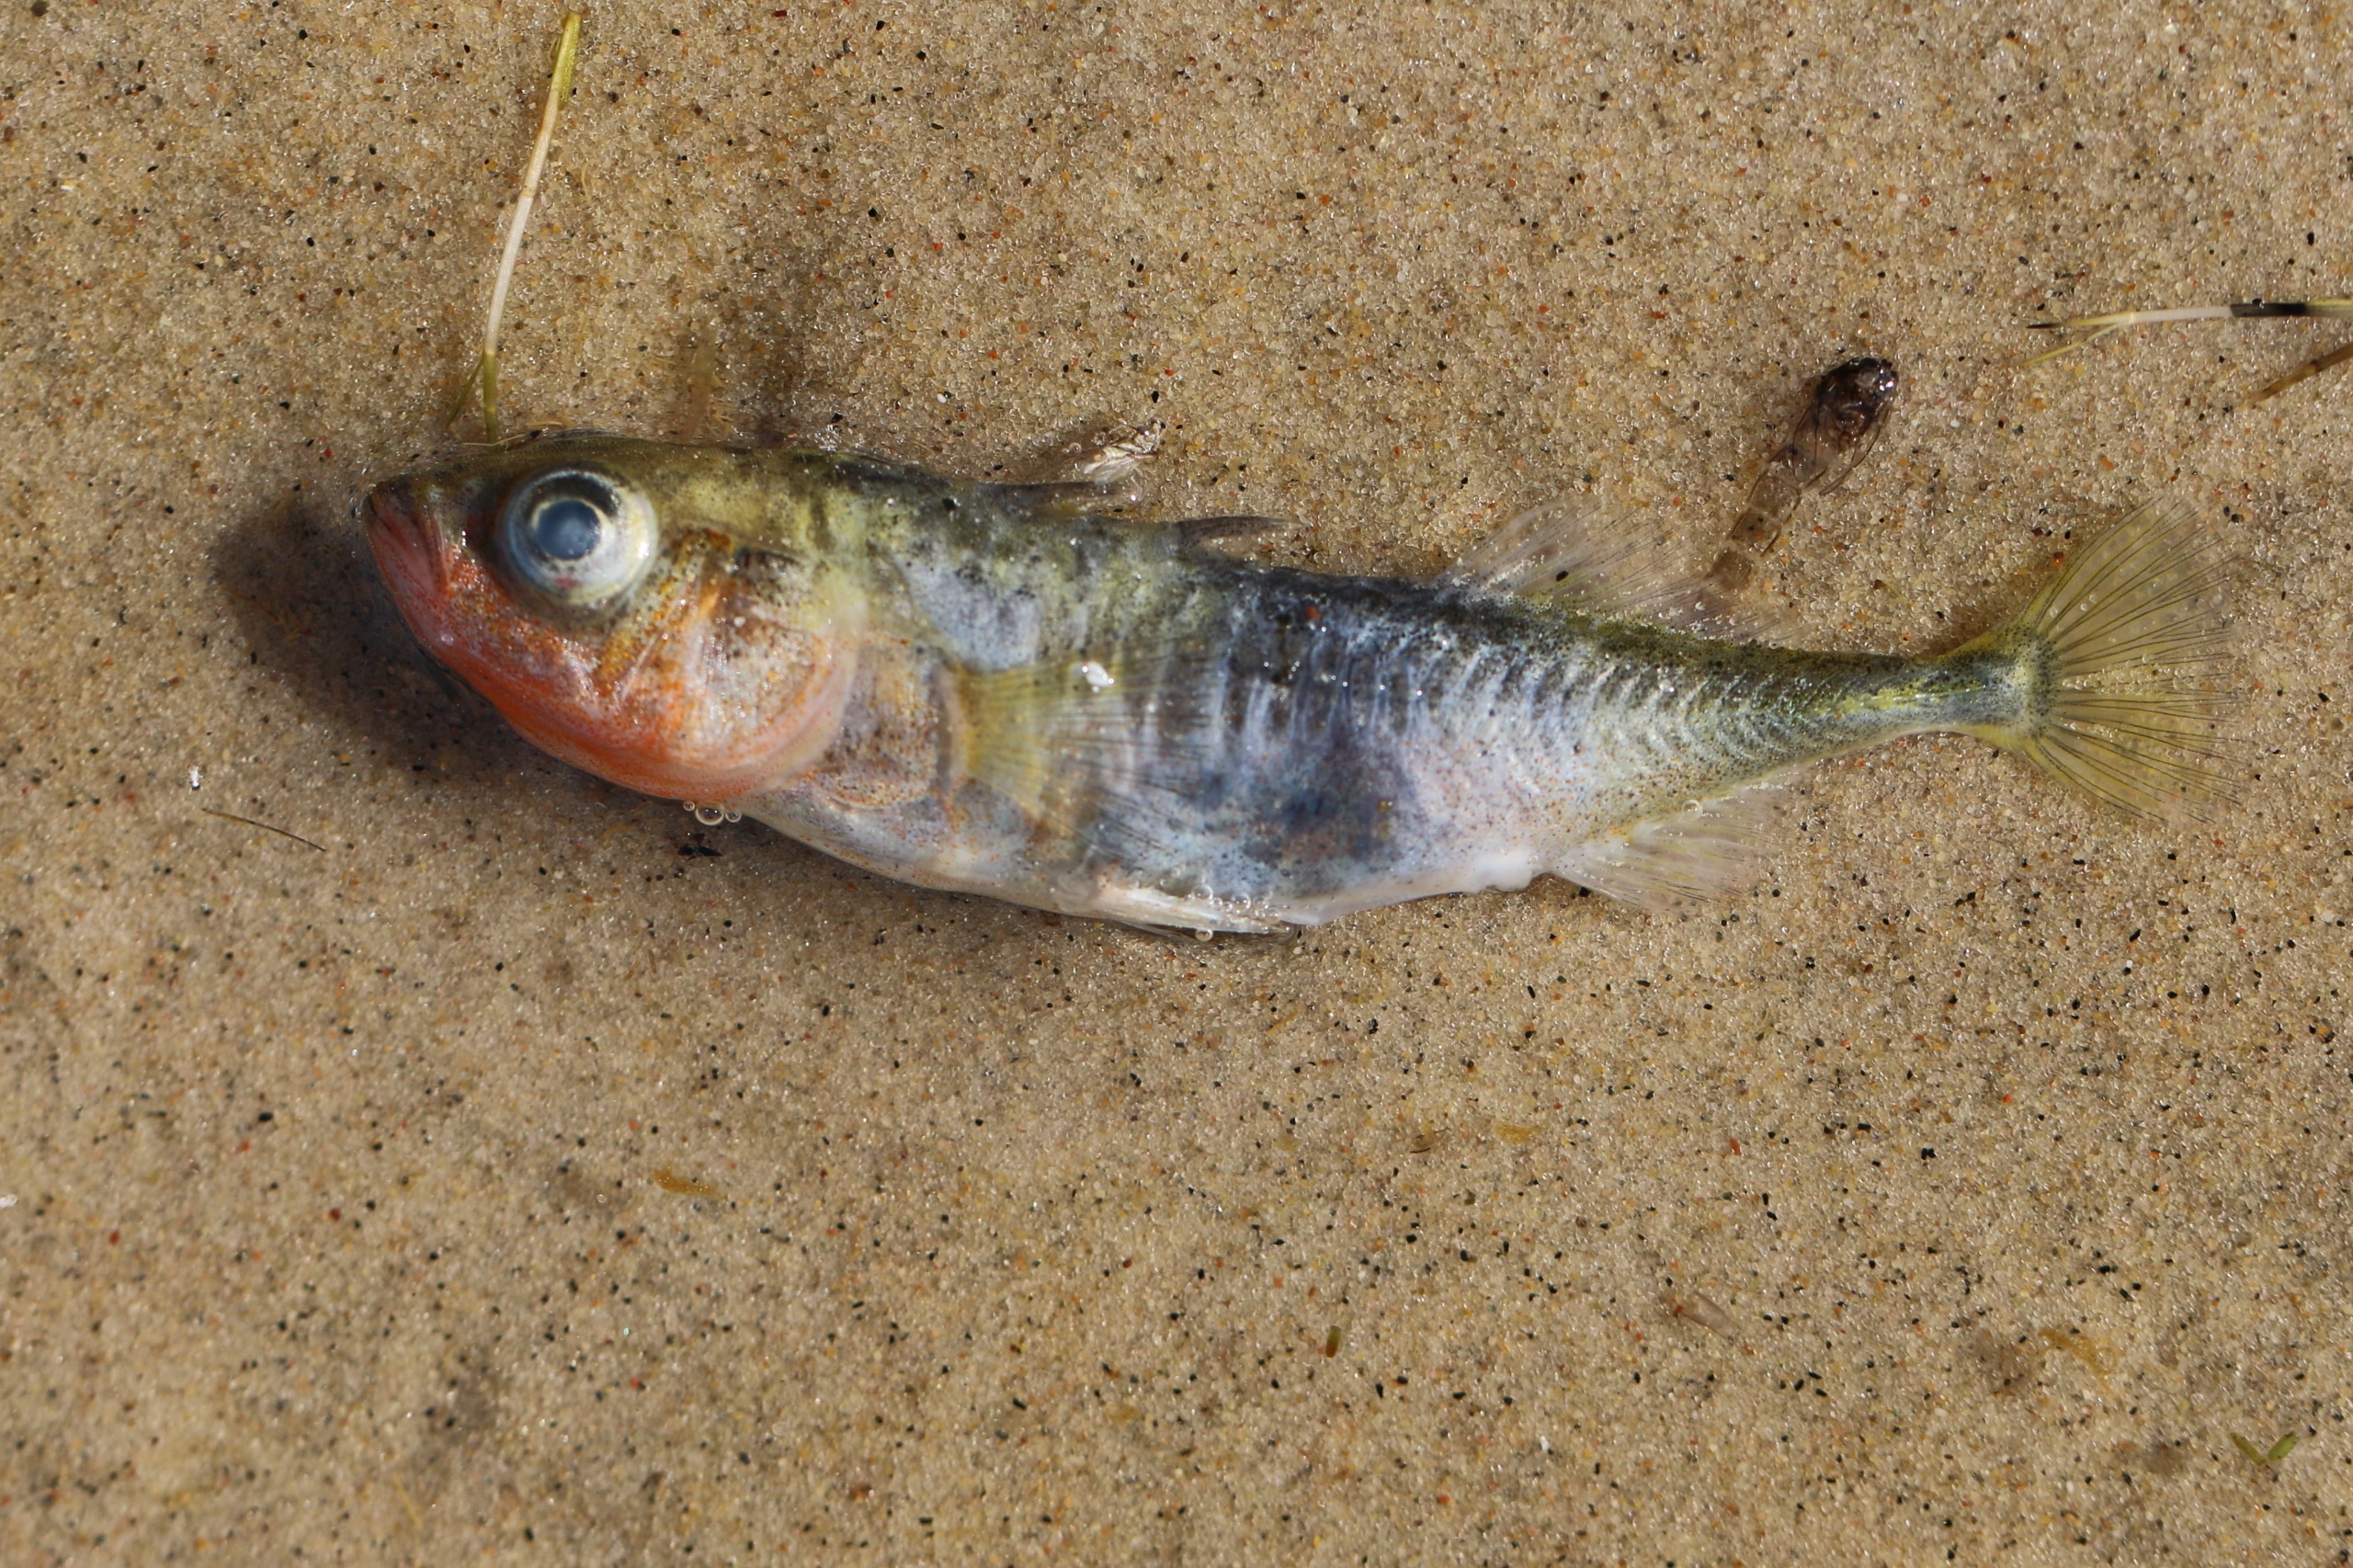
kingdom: Animalia
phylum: Chordata
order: Gasterosteiformes
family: Gasterosteidae
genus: Gasterosteus
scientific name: Gasterosteus aculeatus
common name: Trepigget hundestejle
